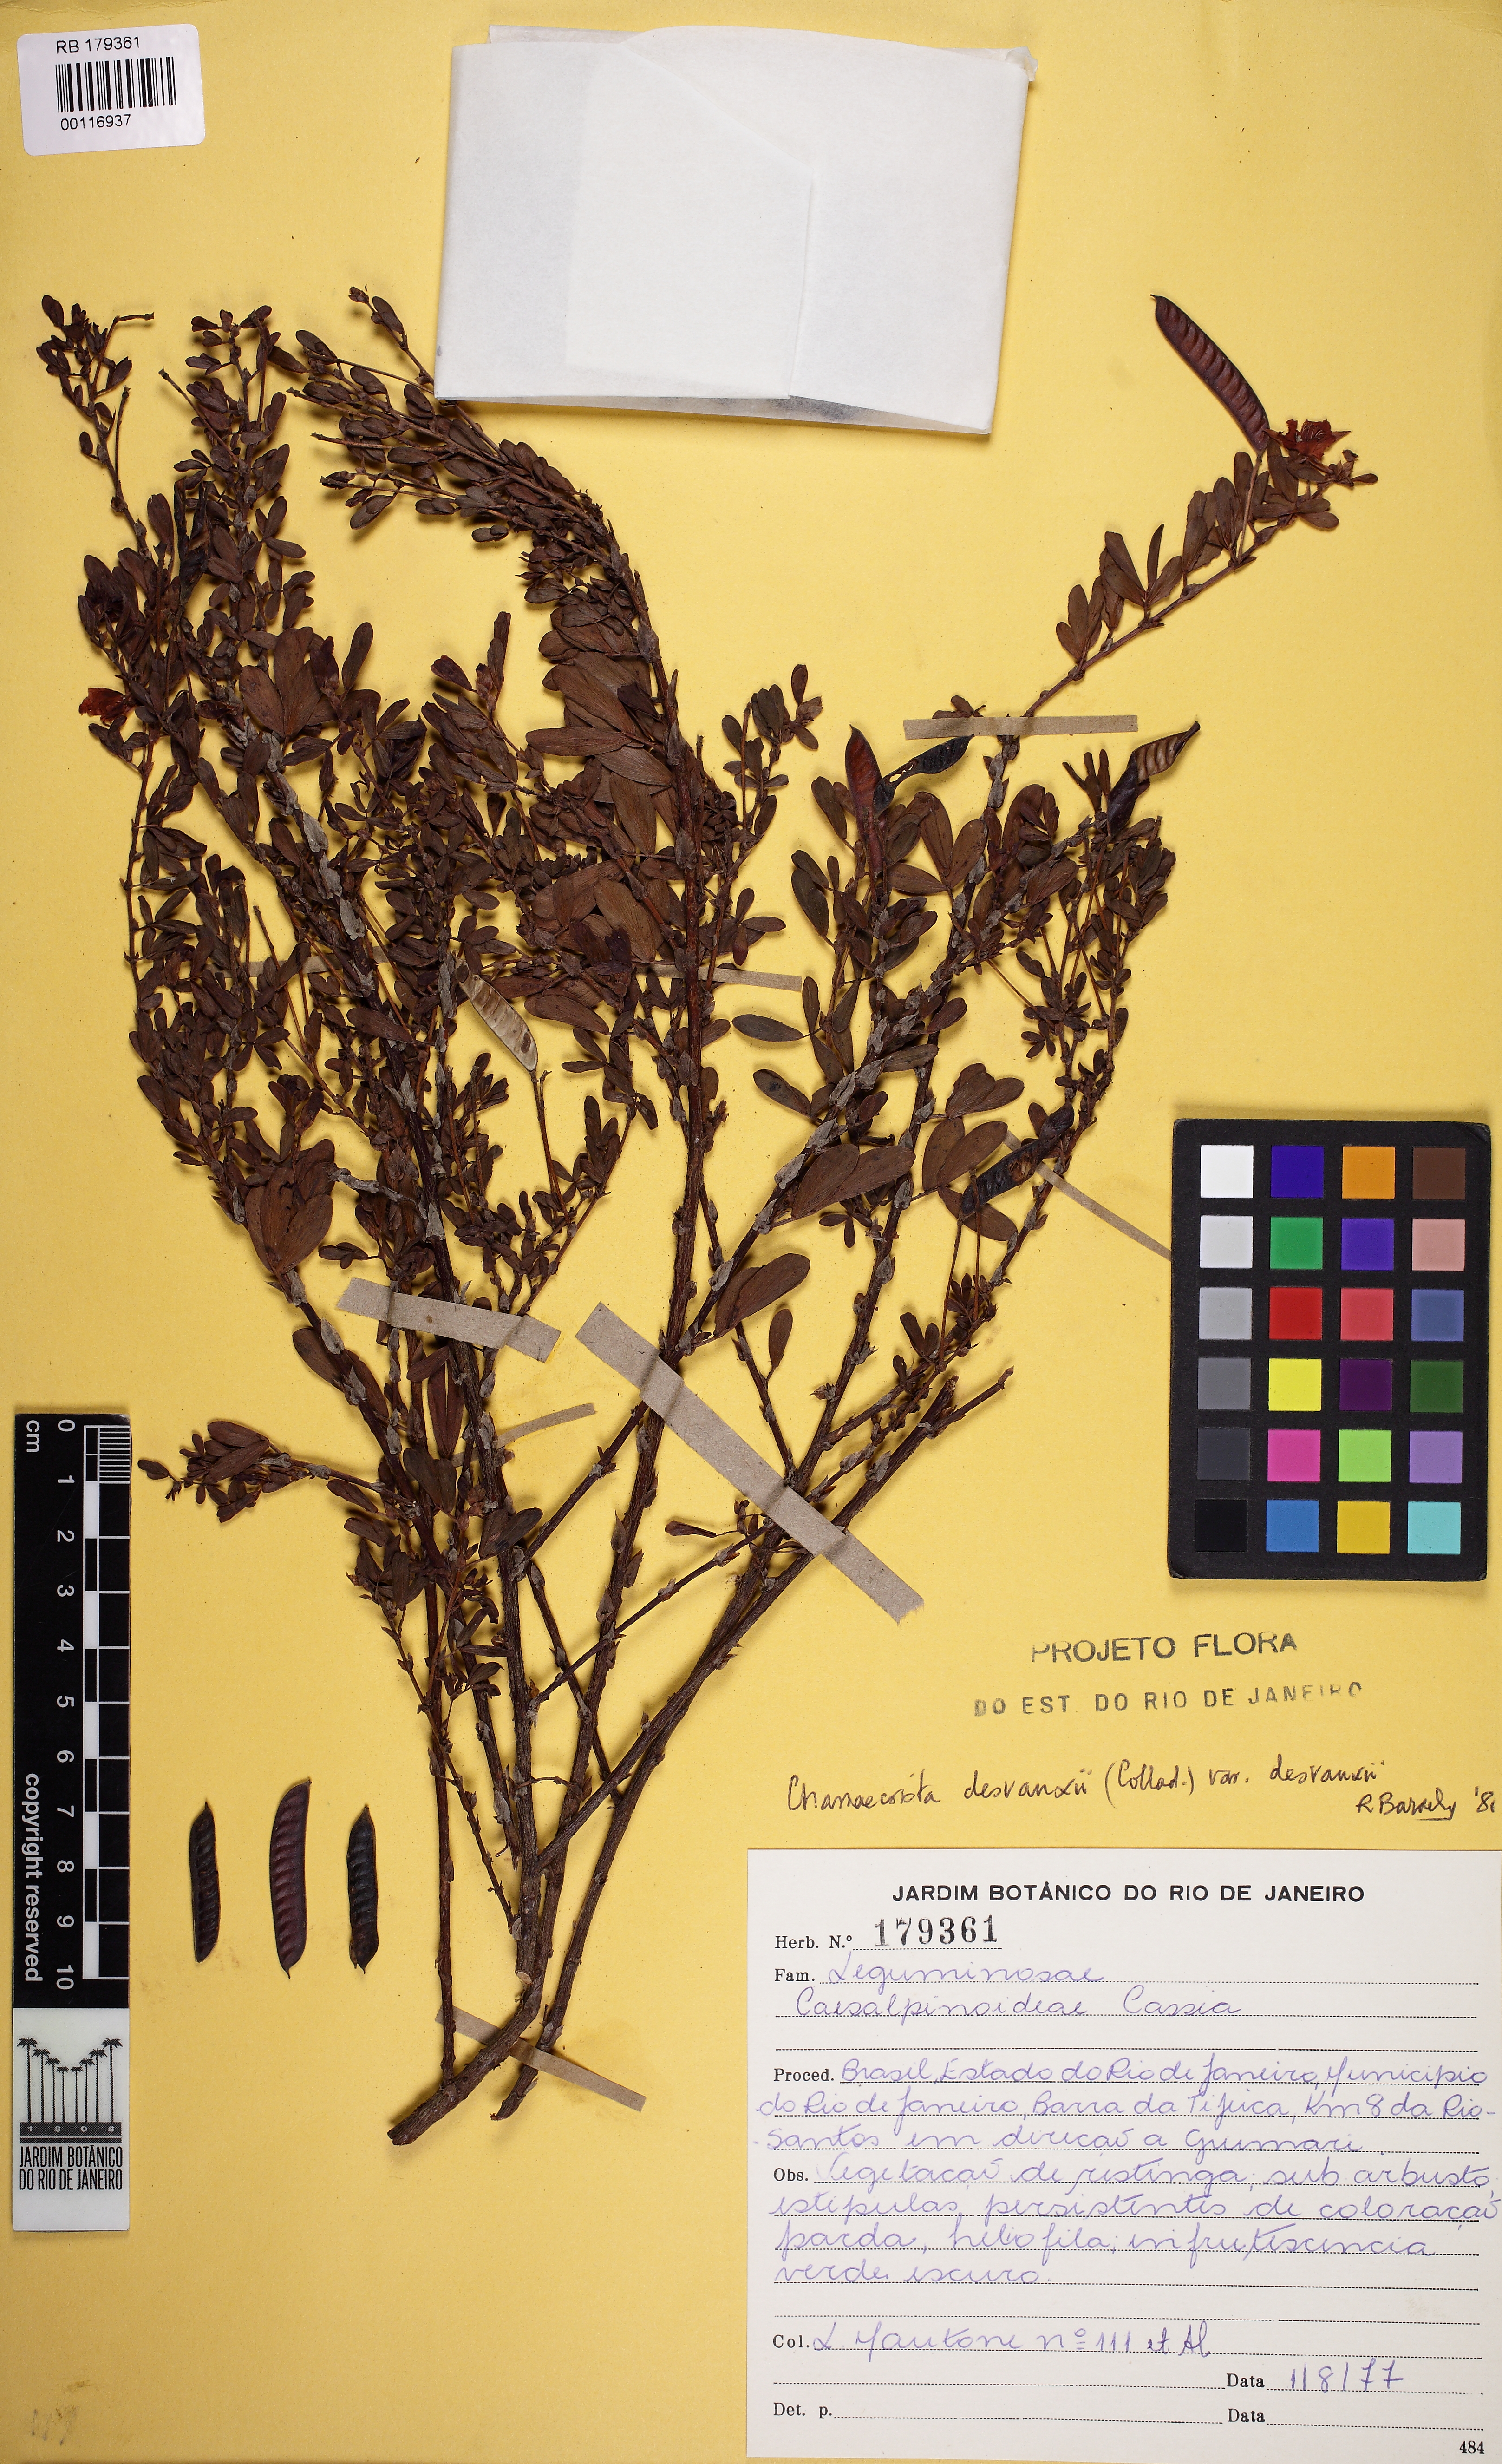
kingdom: Plantae
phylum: Tracheophyta
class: Magnoliopsida
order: Fabales
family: Fabaceae
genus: Chamaecrista
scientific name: Chamaecrista desvauxii
